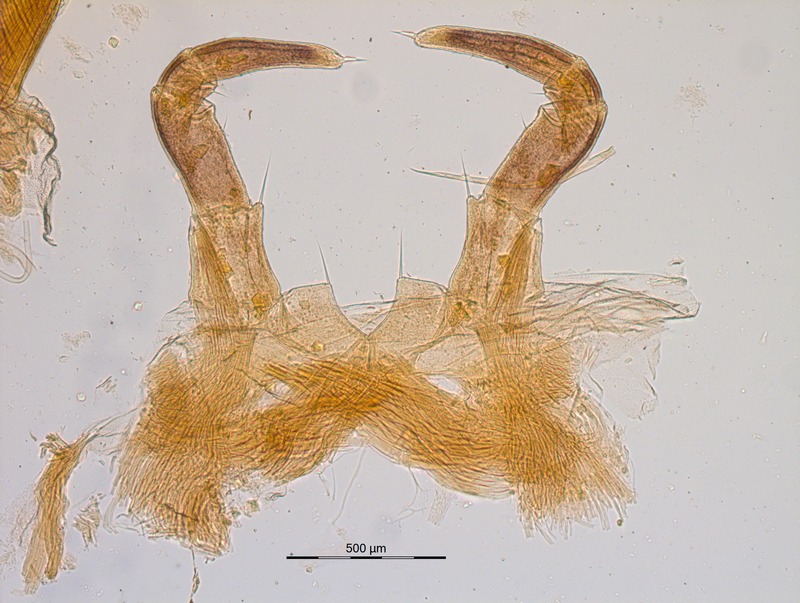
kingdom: Animalia
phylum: Arthropoda
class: Diplopoda
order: Glomerida
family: Glomeridae
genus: Glomeris
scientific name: Glomeris genuensis
